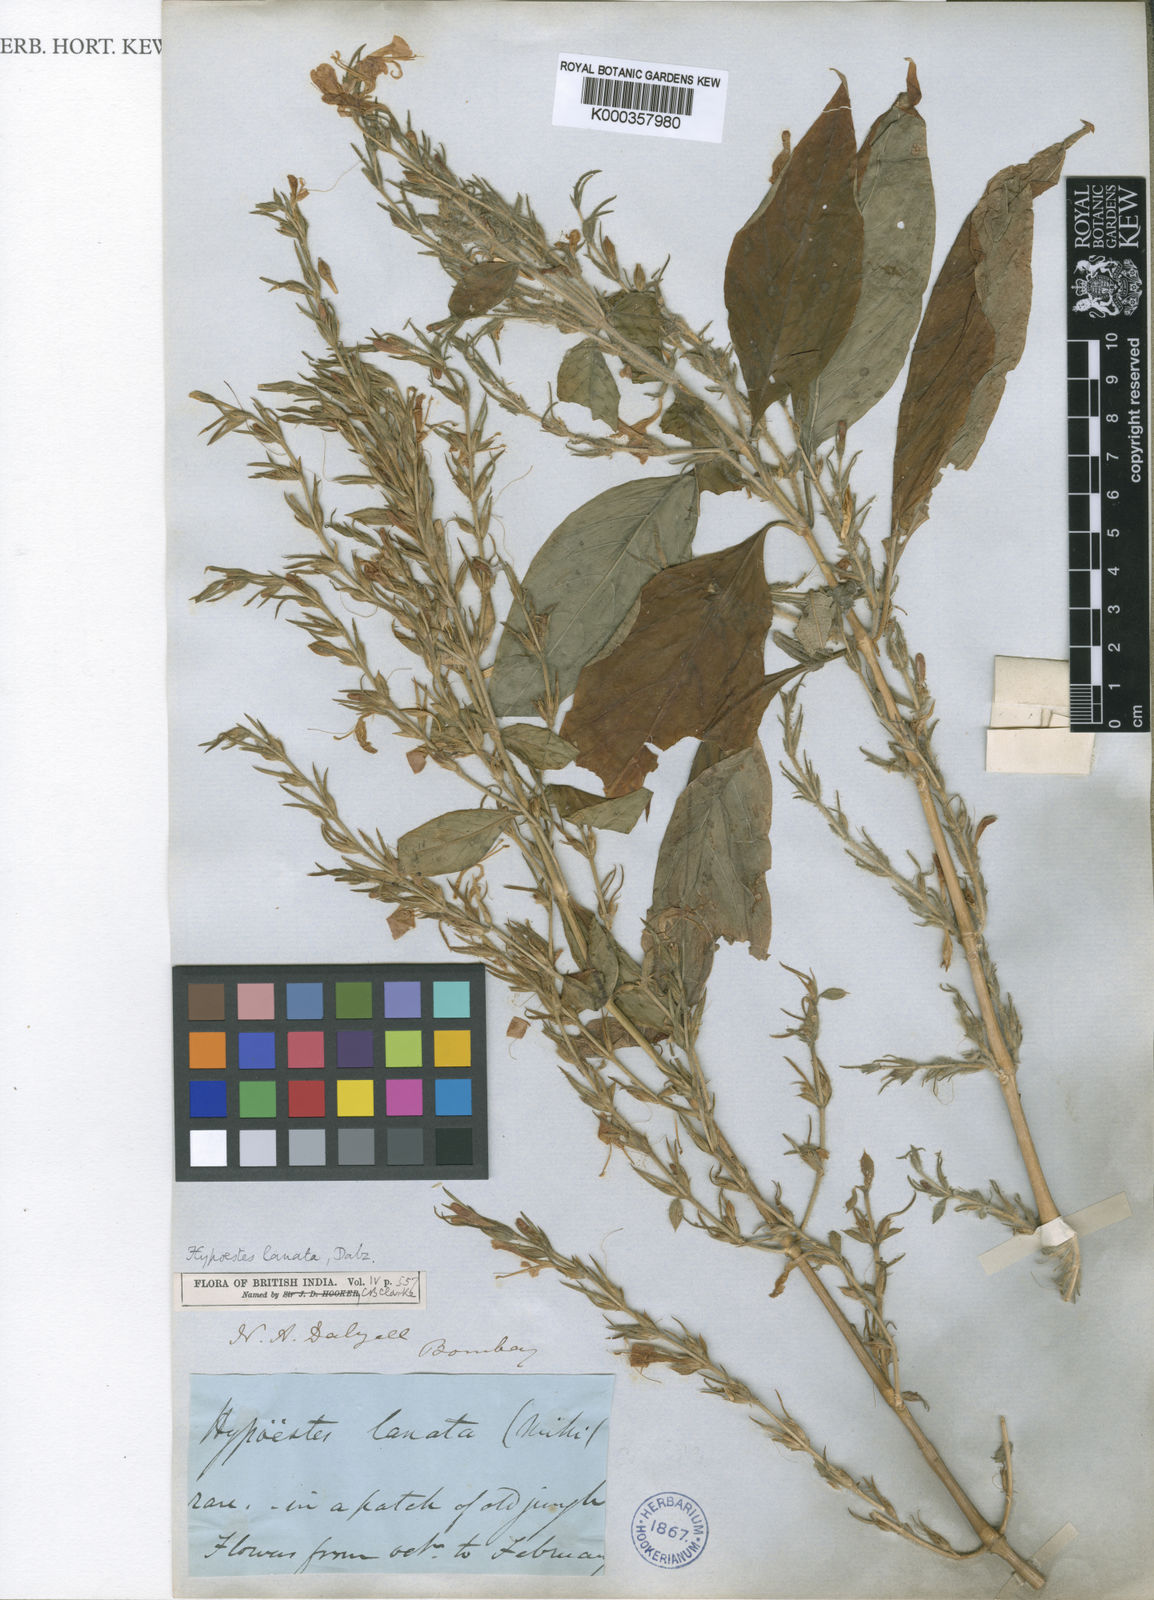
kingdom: Plantae
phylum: Tracheophyta
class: Magnoliopsida
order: Lamiales
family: Acanthaceae
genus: Hypoestes
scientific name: Hypoestes lanata
